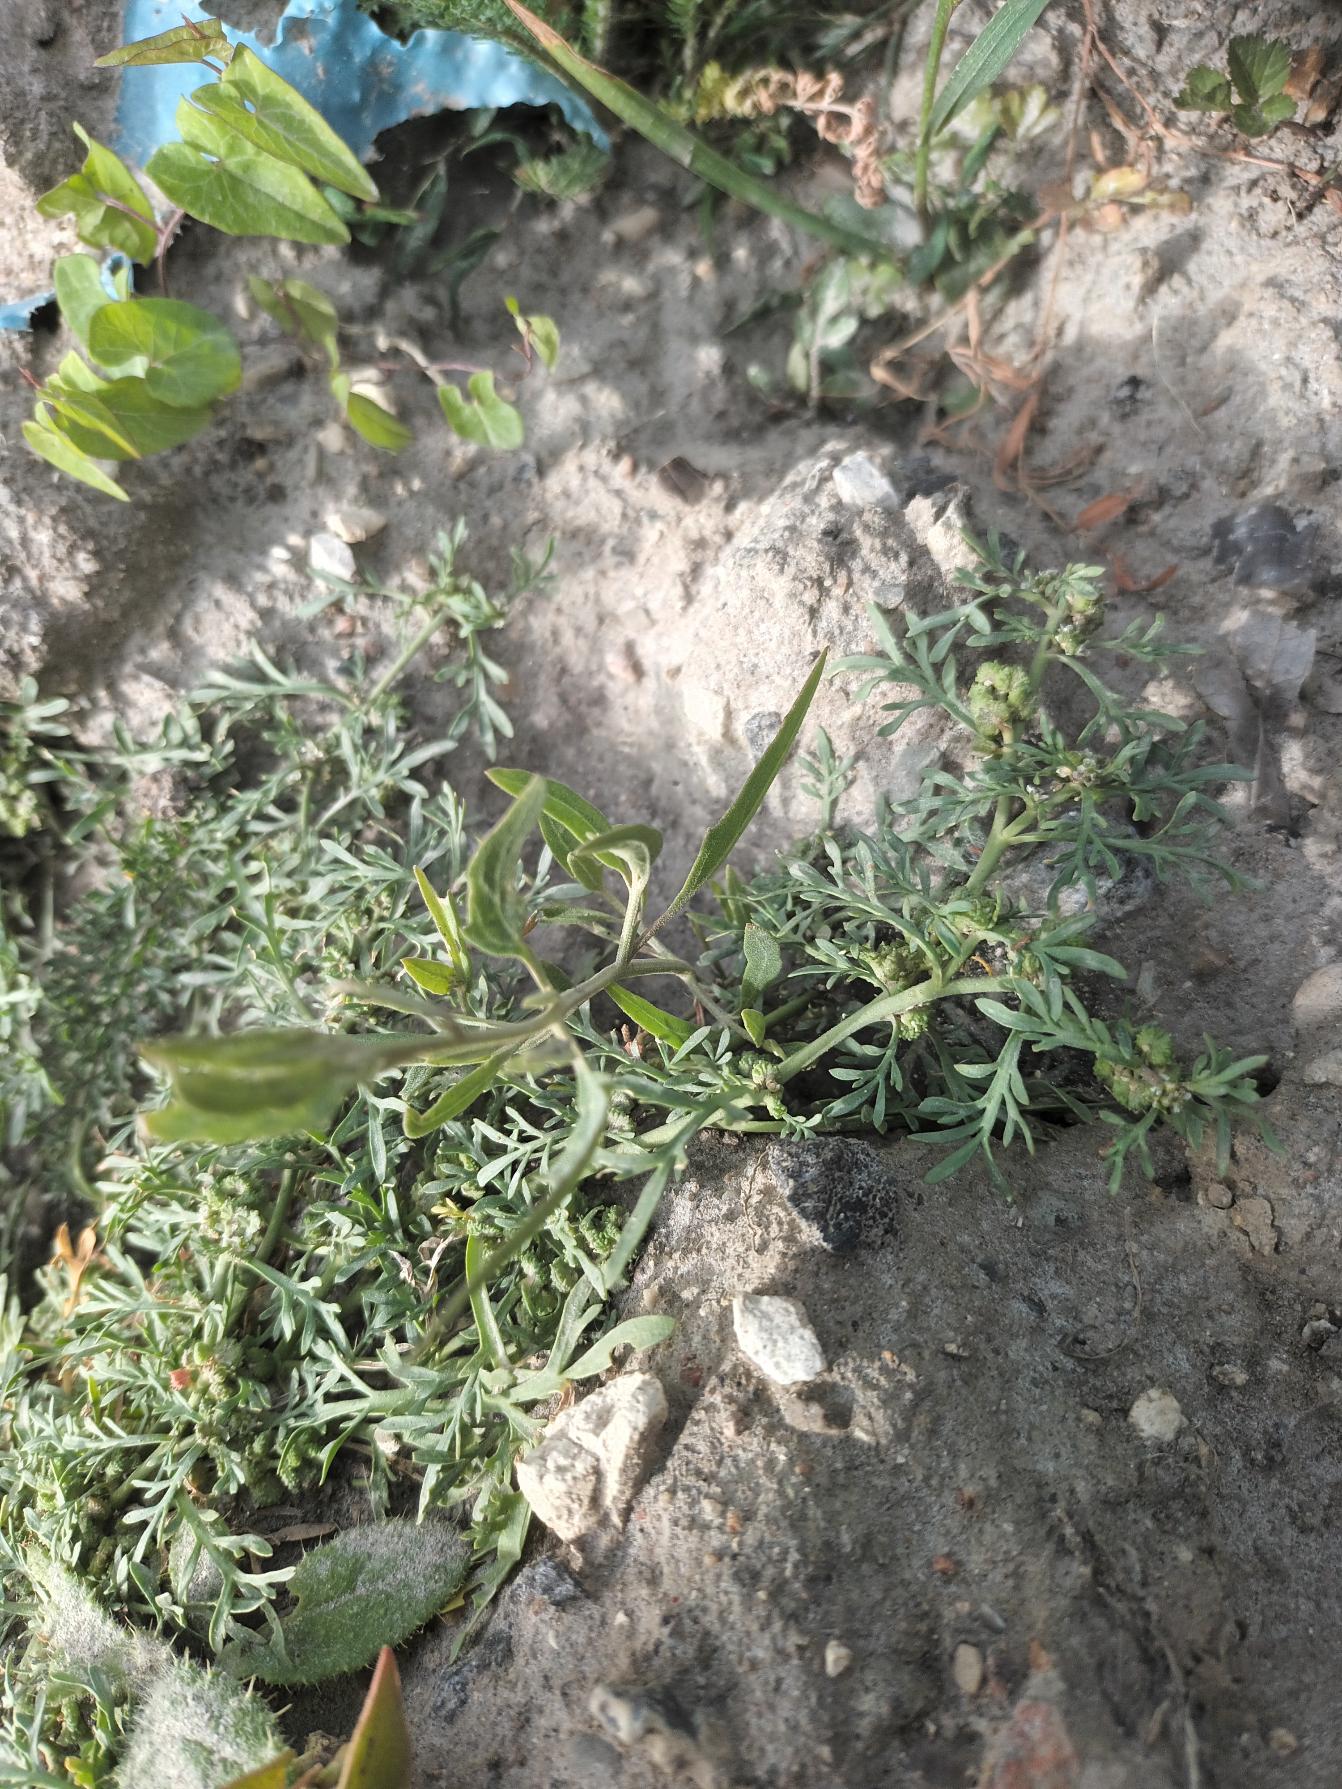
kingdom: Plantae
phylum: Tracheophyta
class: Magnoliopsida
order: Brassicales
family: Brassicaceae
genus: Lepidium
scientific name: Lepidium coronopus
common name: Ravnefod
